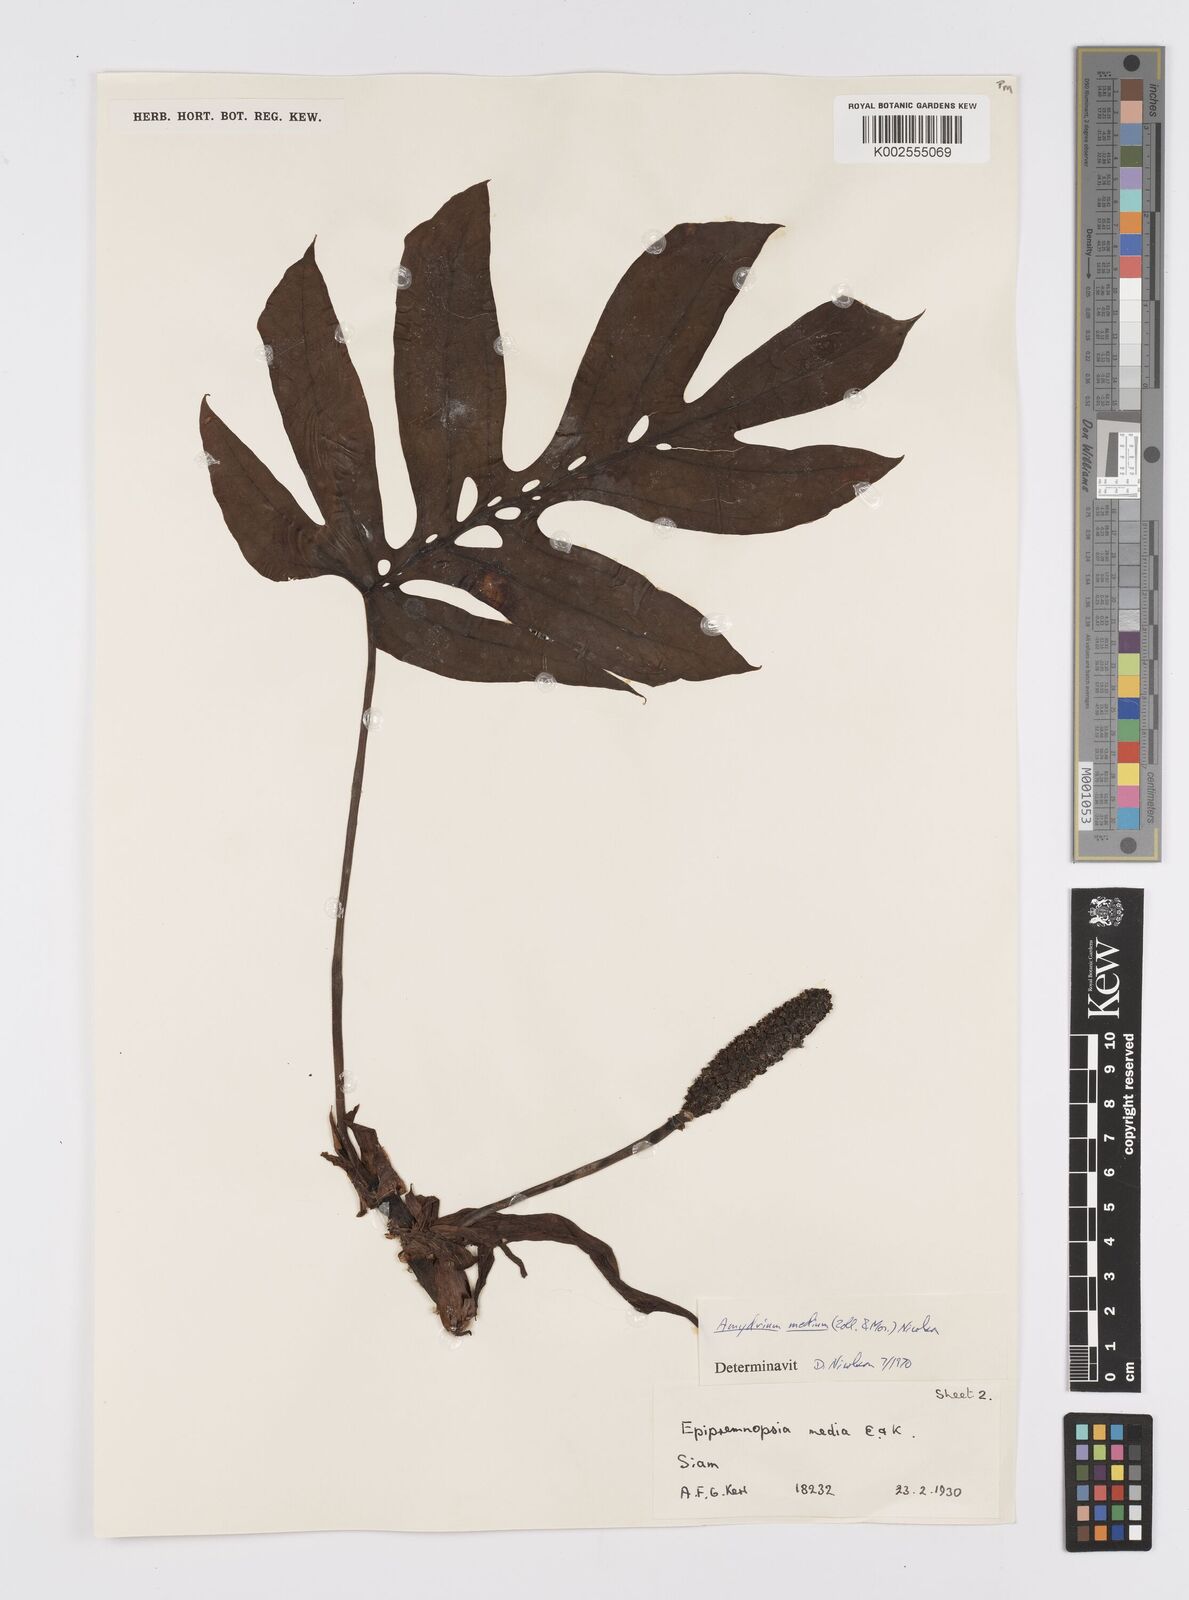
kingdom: Plantae
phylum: Tracheophyta
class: Liliopsida
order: Alismatales
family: Araceae
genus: Amydrium
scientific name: Amydrium medium
